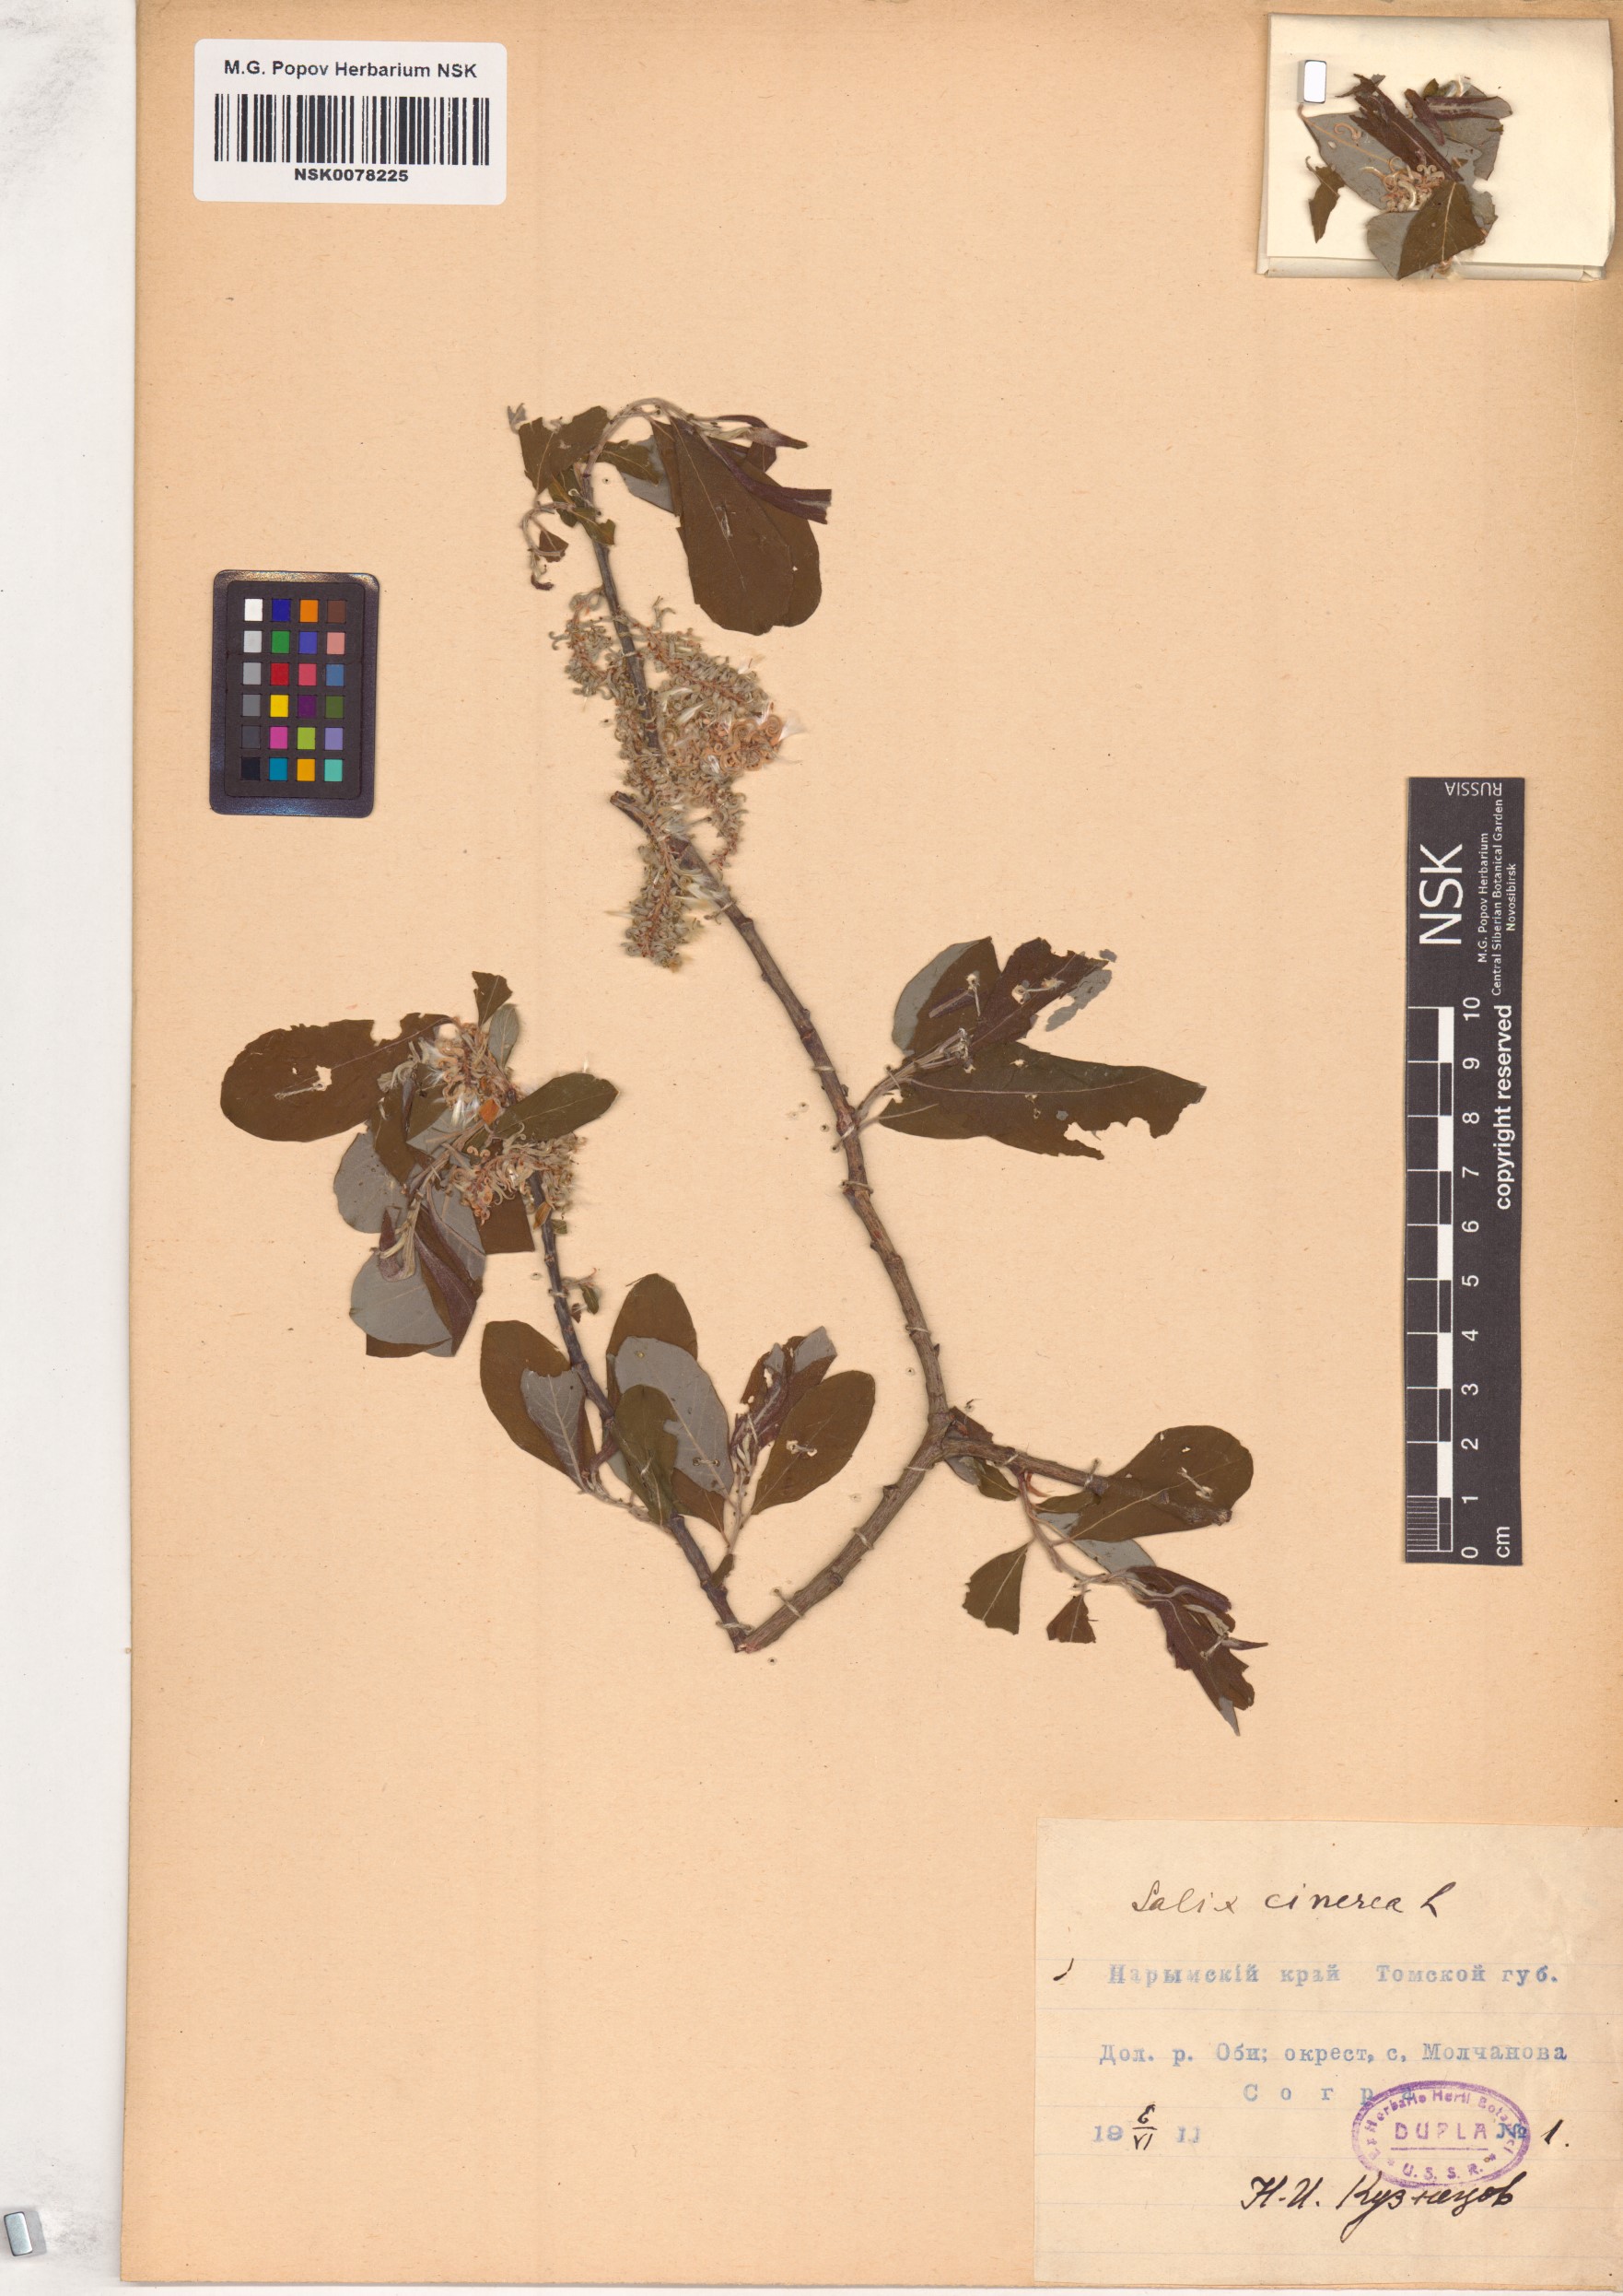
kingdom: Plantae
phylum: Tracheophyta
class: Magnoliopsida
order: Malpighiales
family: Salicaceae
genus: Salix
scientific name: Salix cinerea
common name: Common sallow
